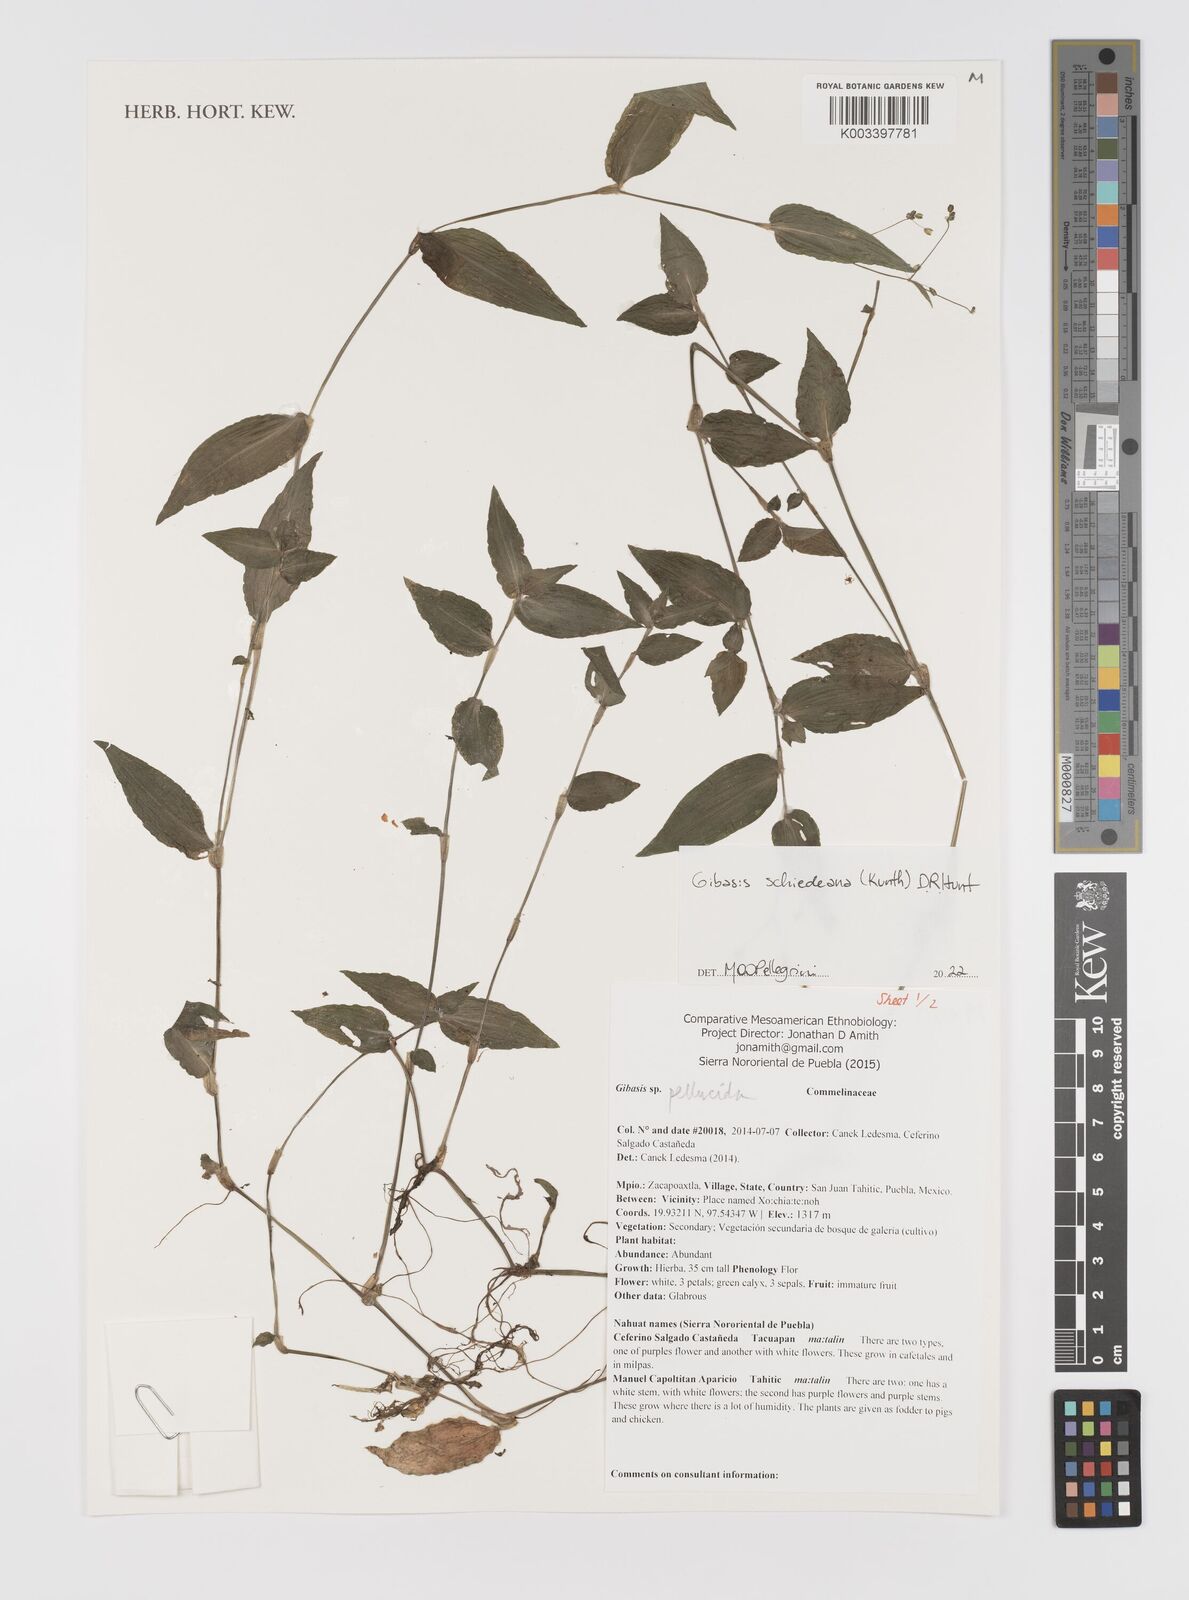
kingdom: Plantae
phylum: Tracheophyta
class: Liliopsida
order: Commelinales
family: Commelinaceae
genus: Gibasis
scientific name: Gibasis
